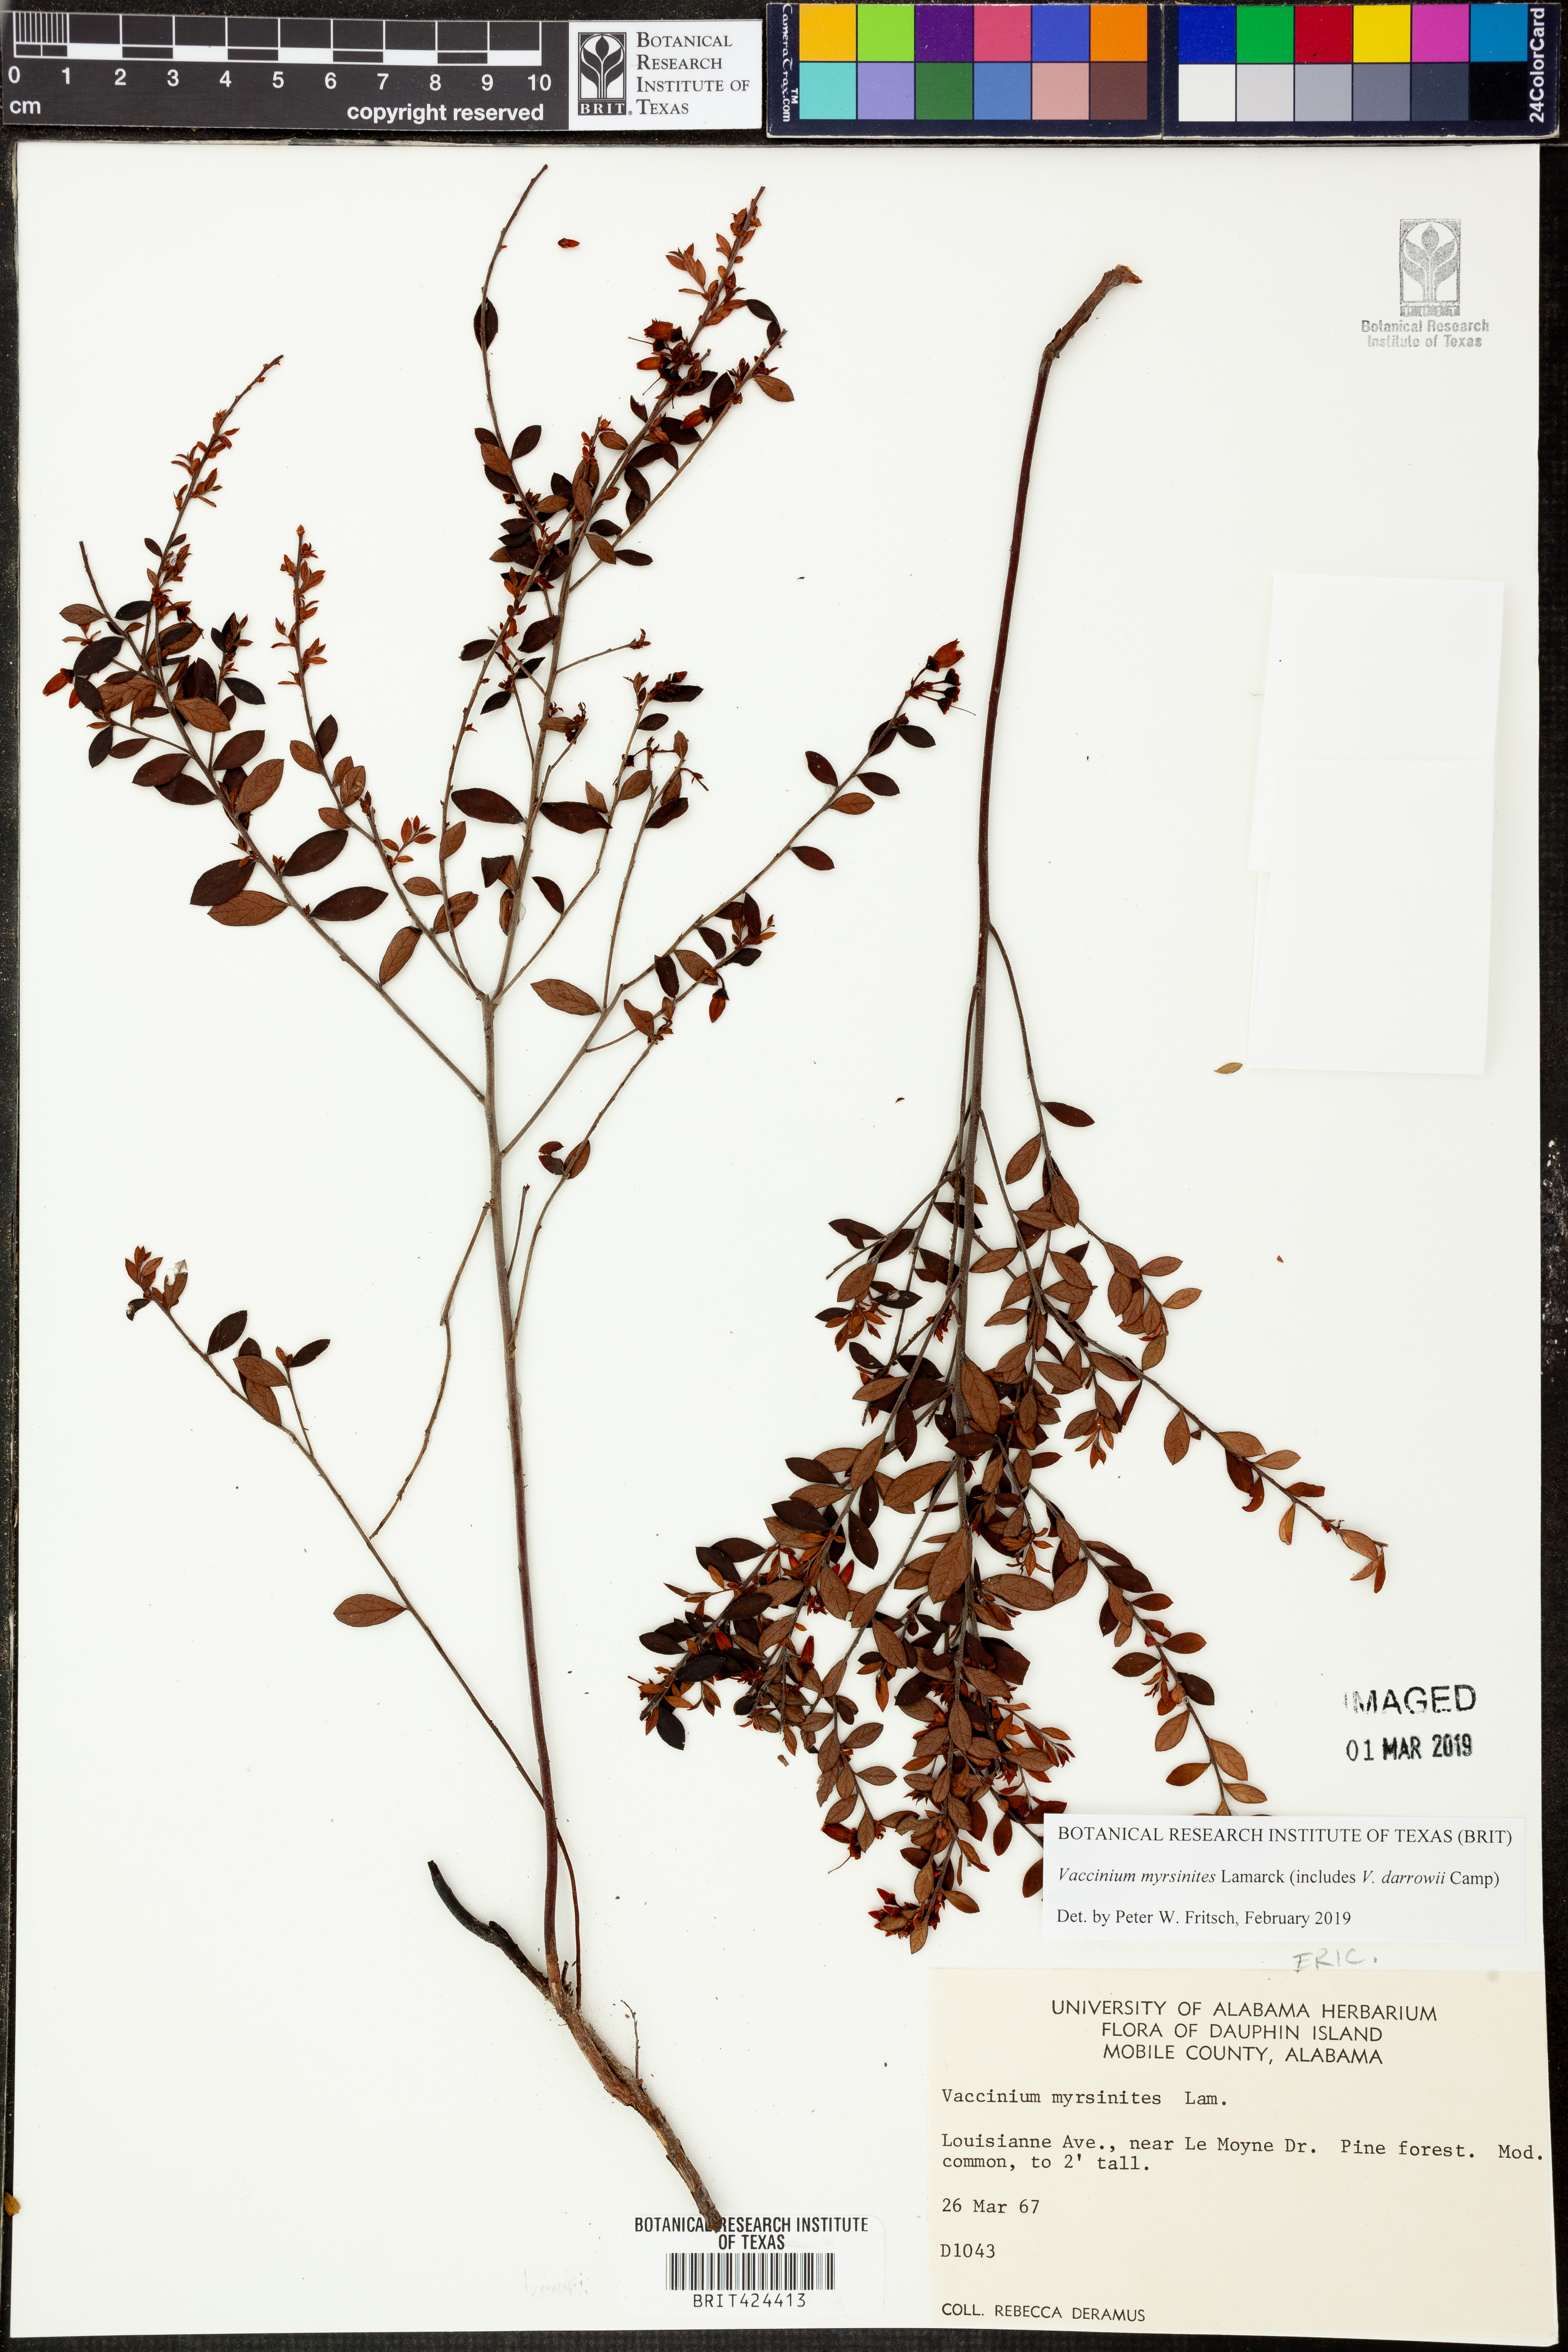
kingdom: Plantae
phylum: Tracheophyta
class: Magnoliopsida
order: Ericales
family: Ericaceae
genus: Vaccinium
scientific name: Vaccinium myrsinites
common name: Evergreen blueberry
